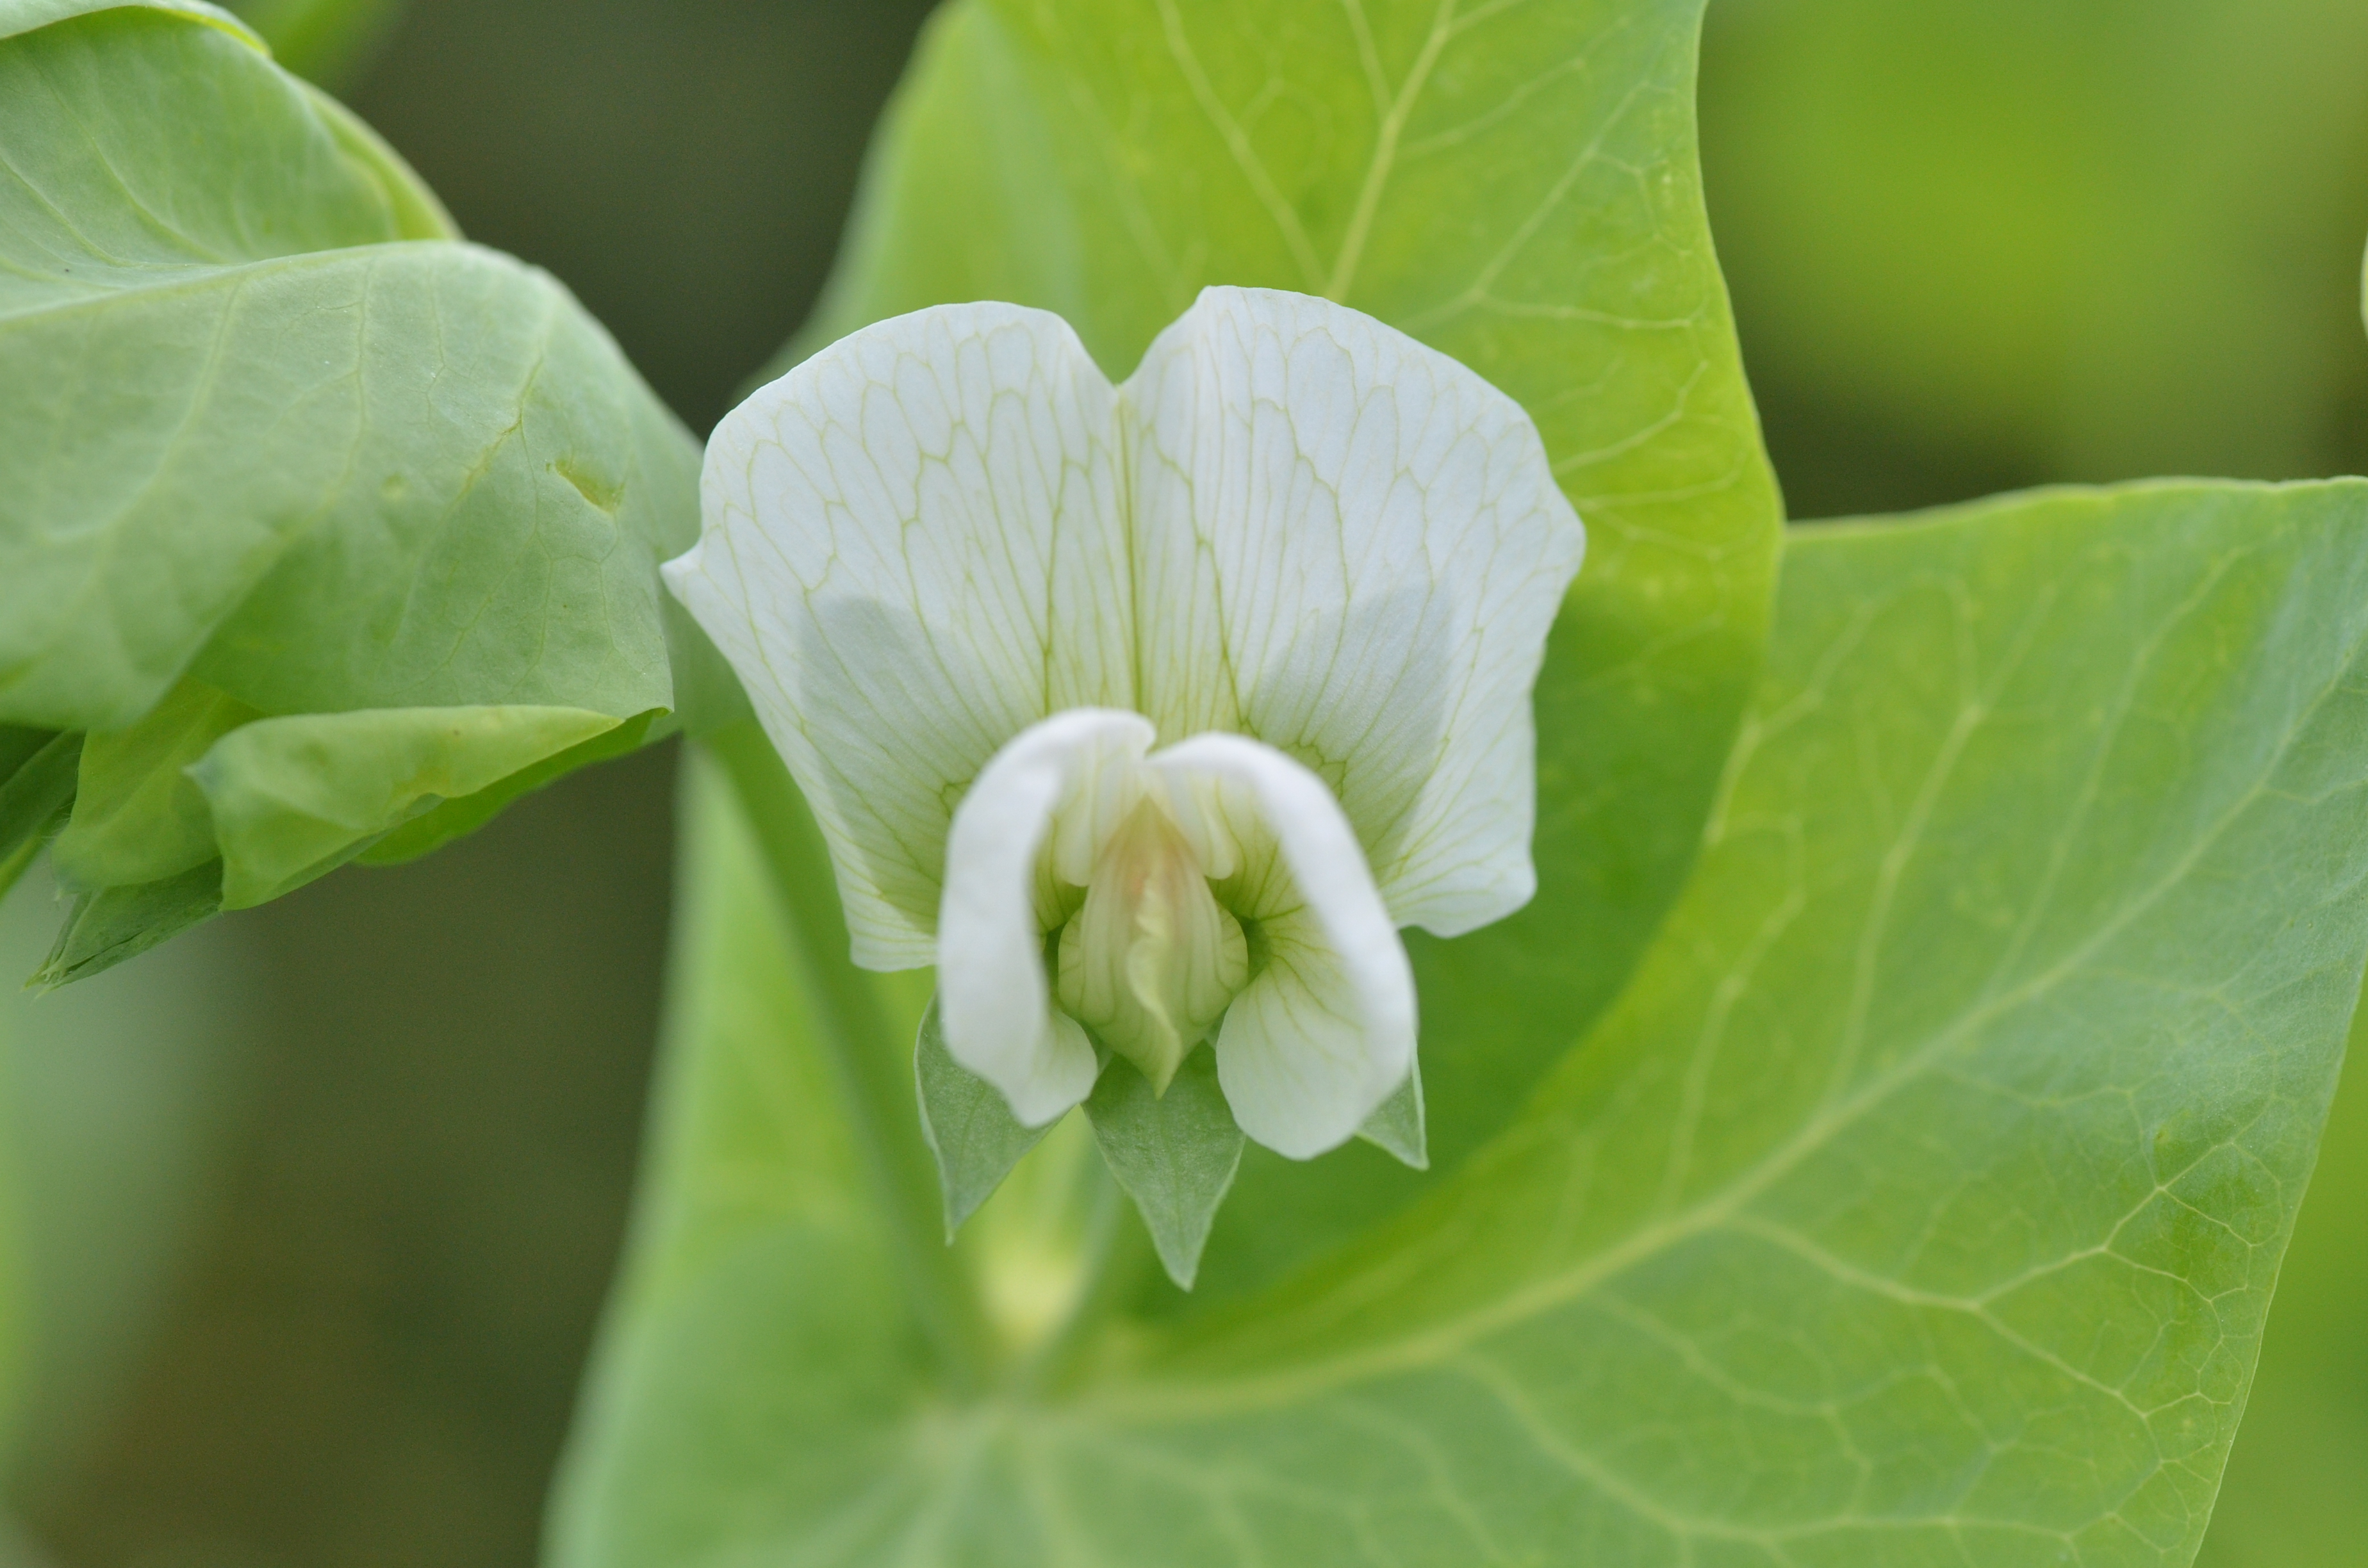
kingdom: Plantae
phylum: Tracheophyta
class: Magnoliopsida
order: Fabales
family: Fabaceae
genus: Lathyrus
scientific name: Lathyrus oleraceus
